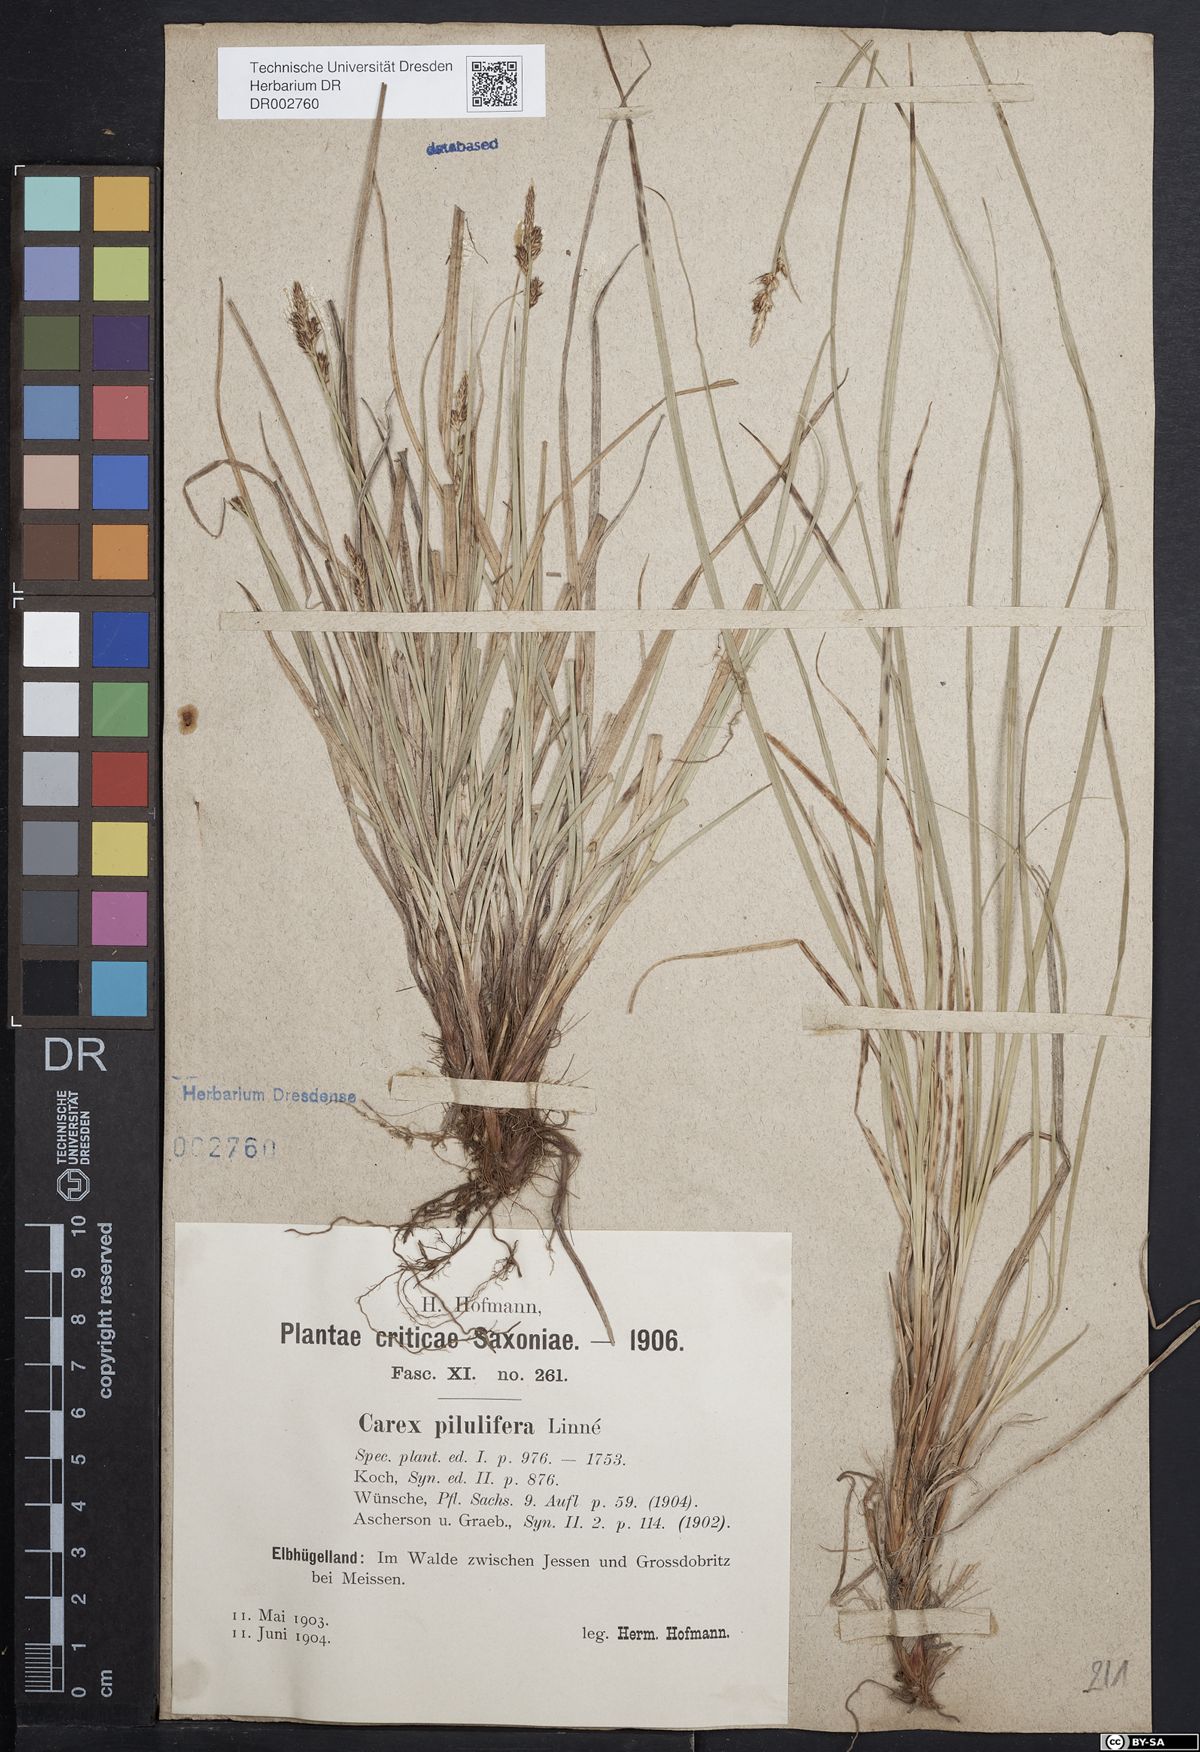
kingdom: Plantae
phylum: Tracheophyta
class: Liliopsida
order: Poales
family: Cyperaceae
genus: Carex
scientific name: Carex caryophyllea
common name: Spring sedge
